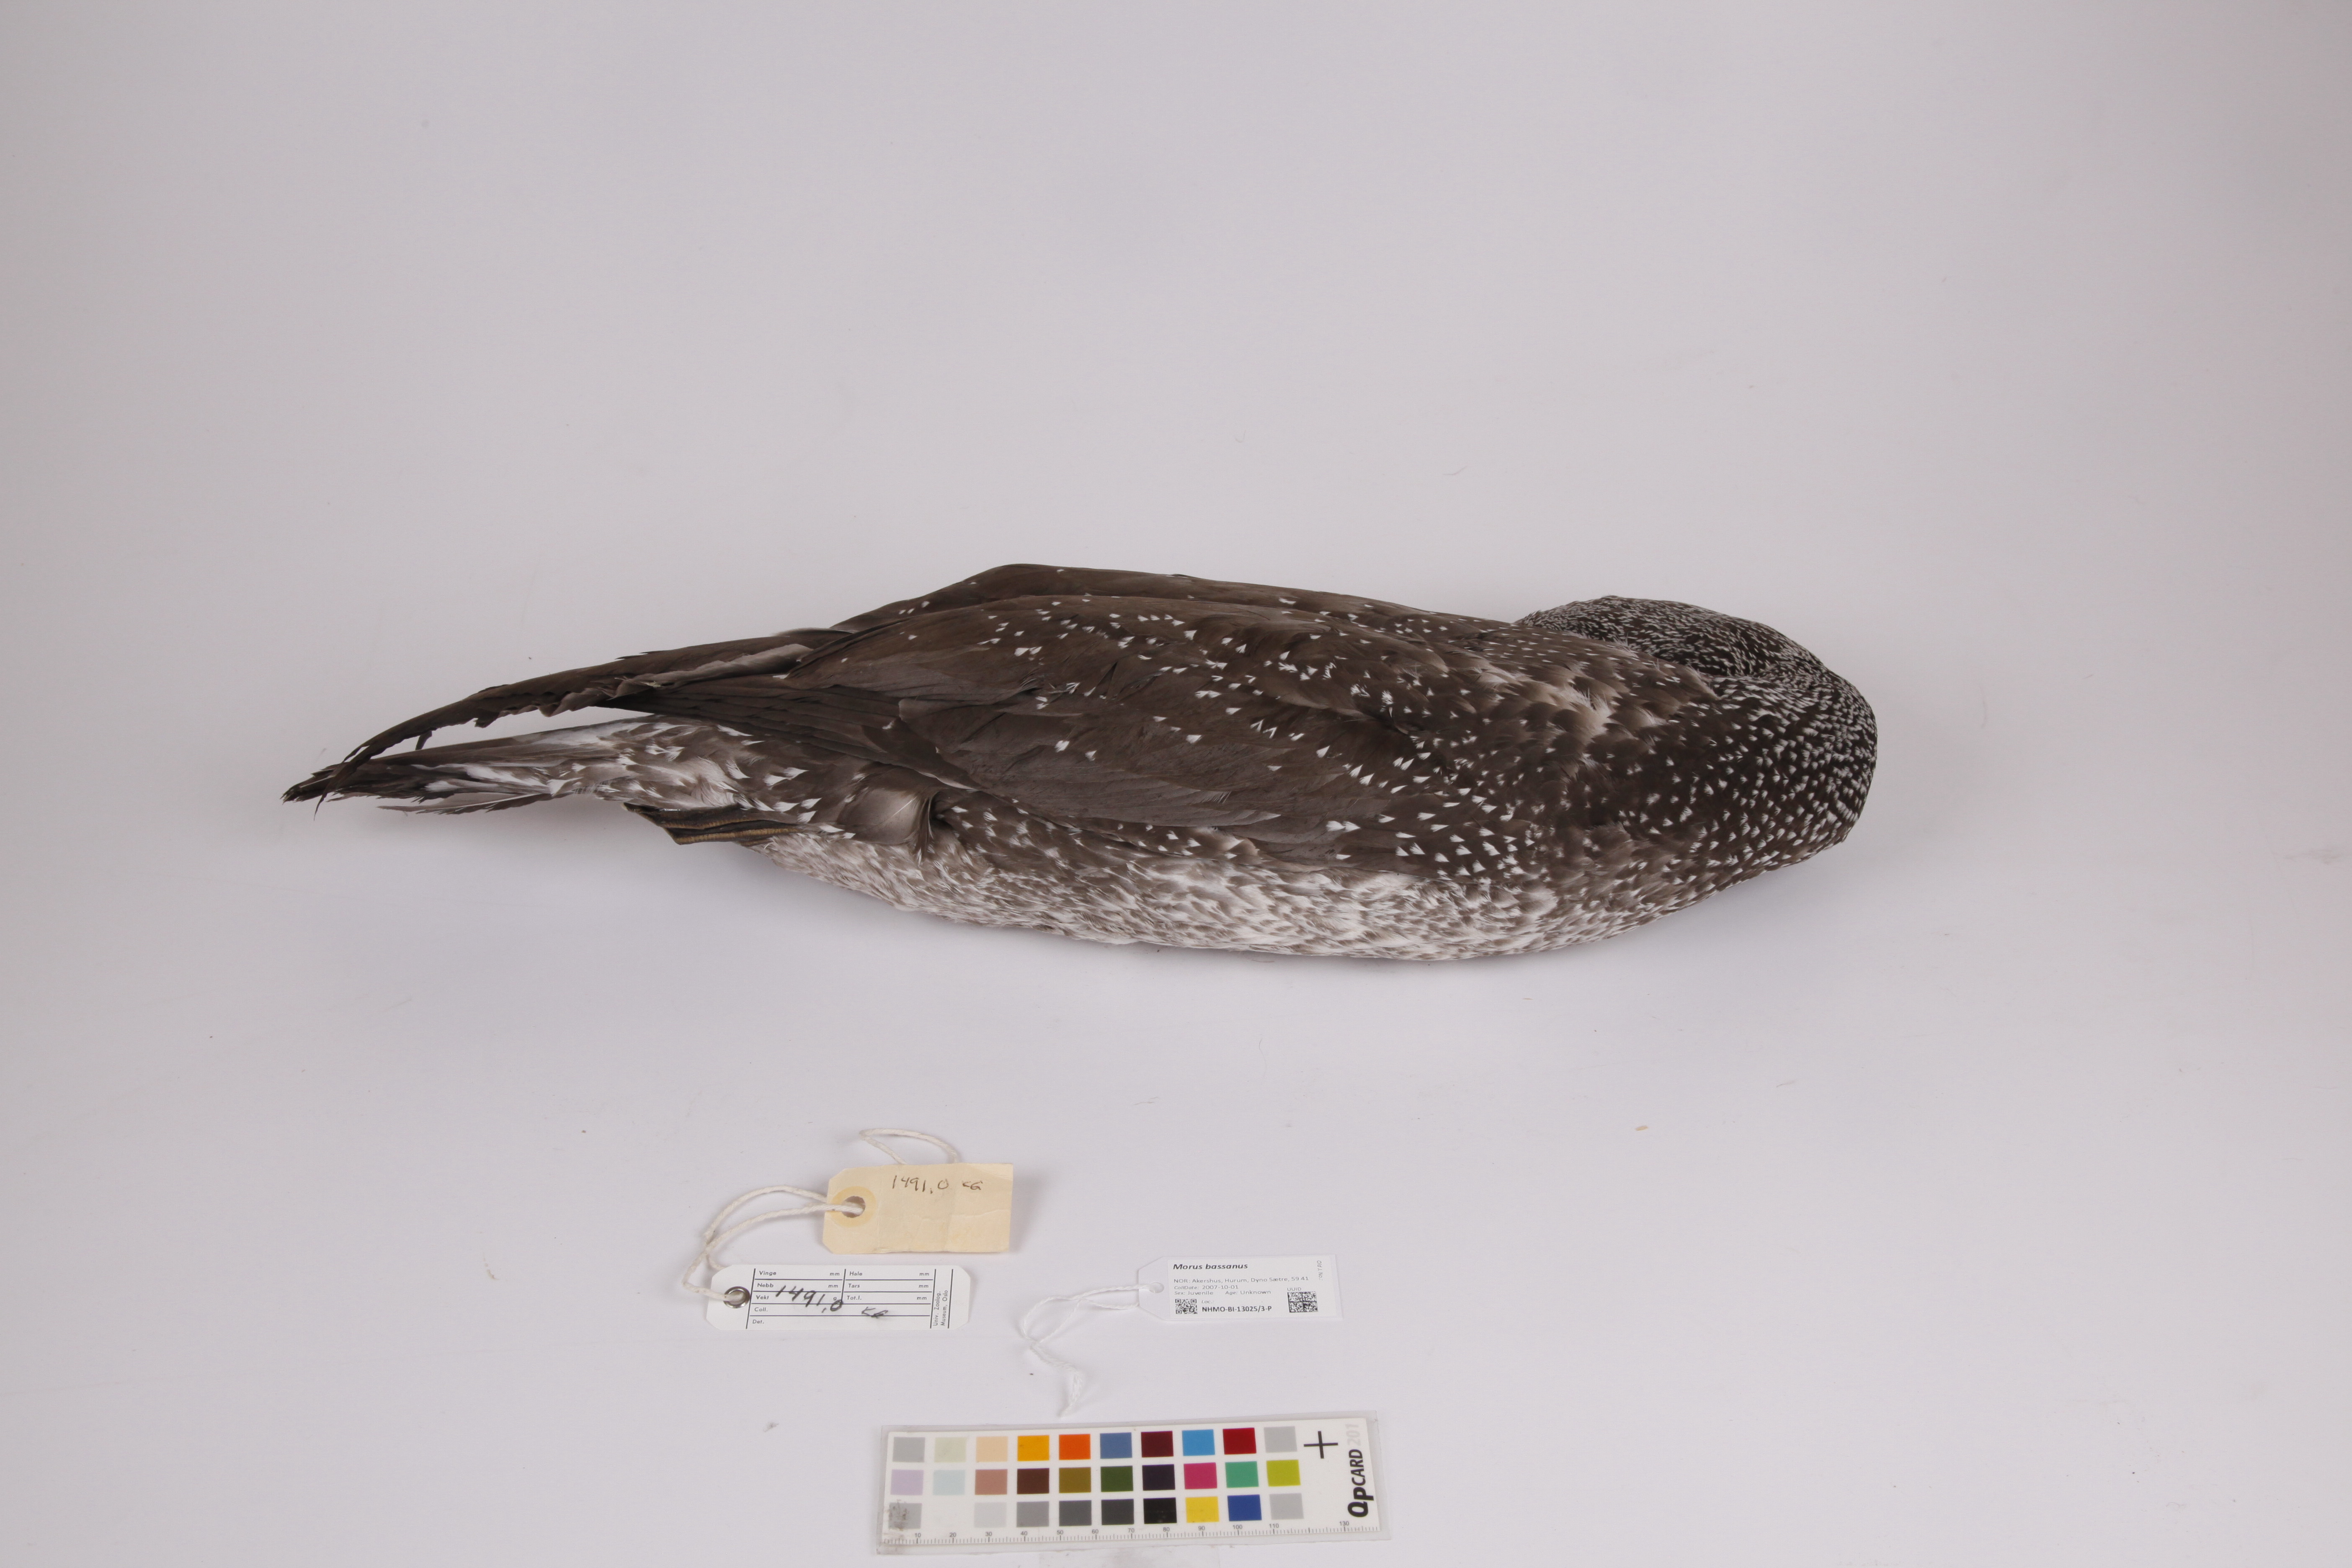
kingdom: Animalia
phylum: Chordata
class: Aves
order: Suliformes
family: Sulidae
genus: Morus
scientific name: Morus bassanus
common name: Northern gannet
